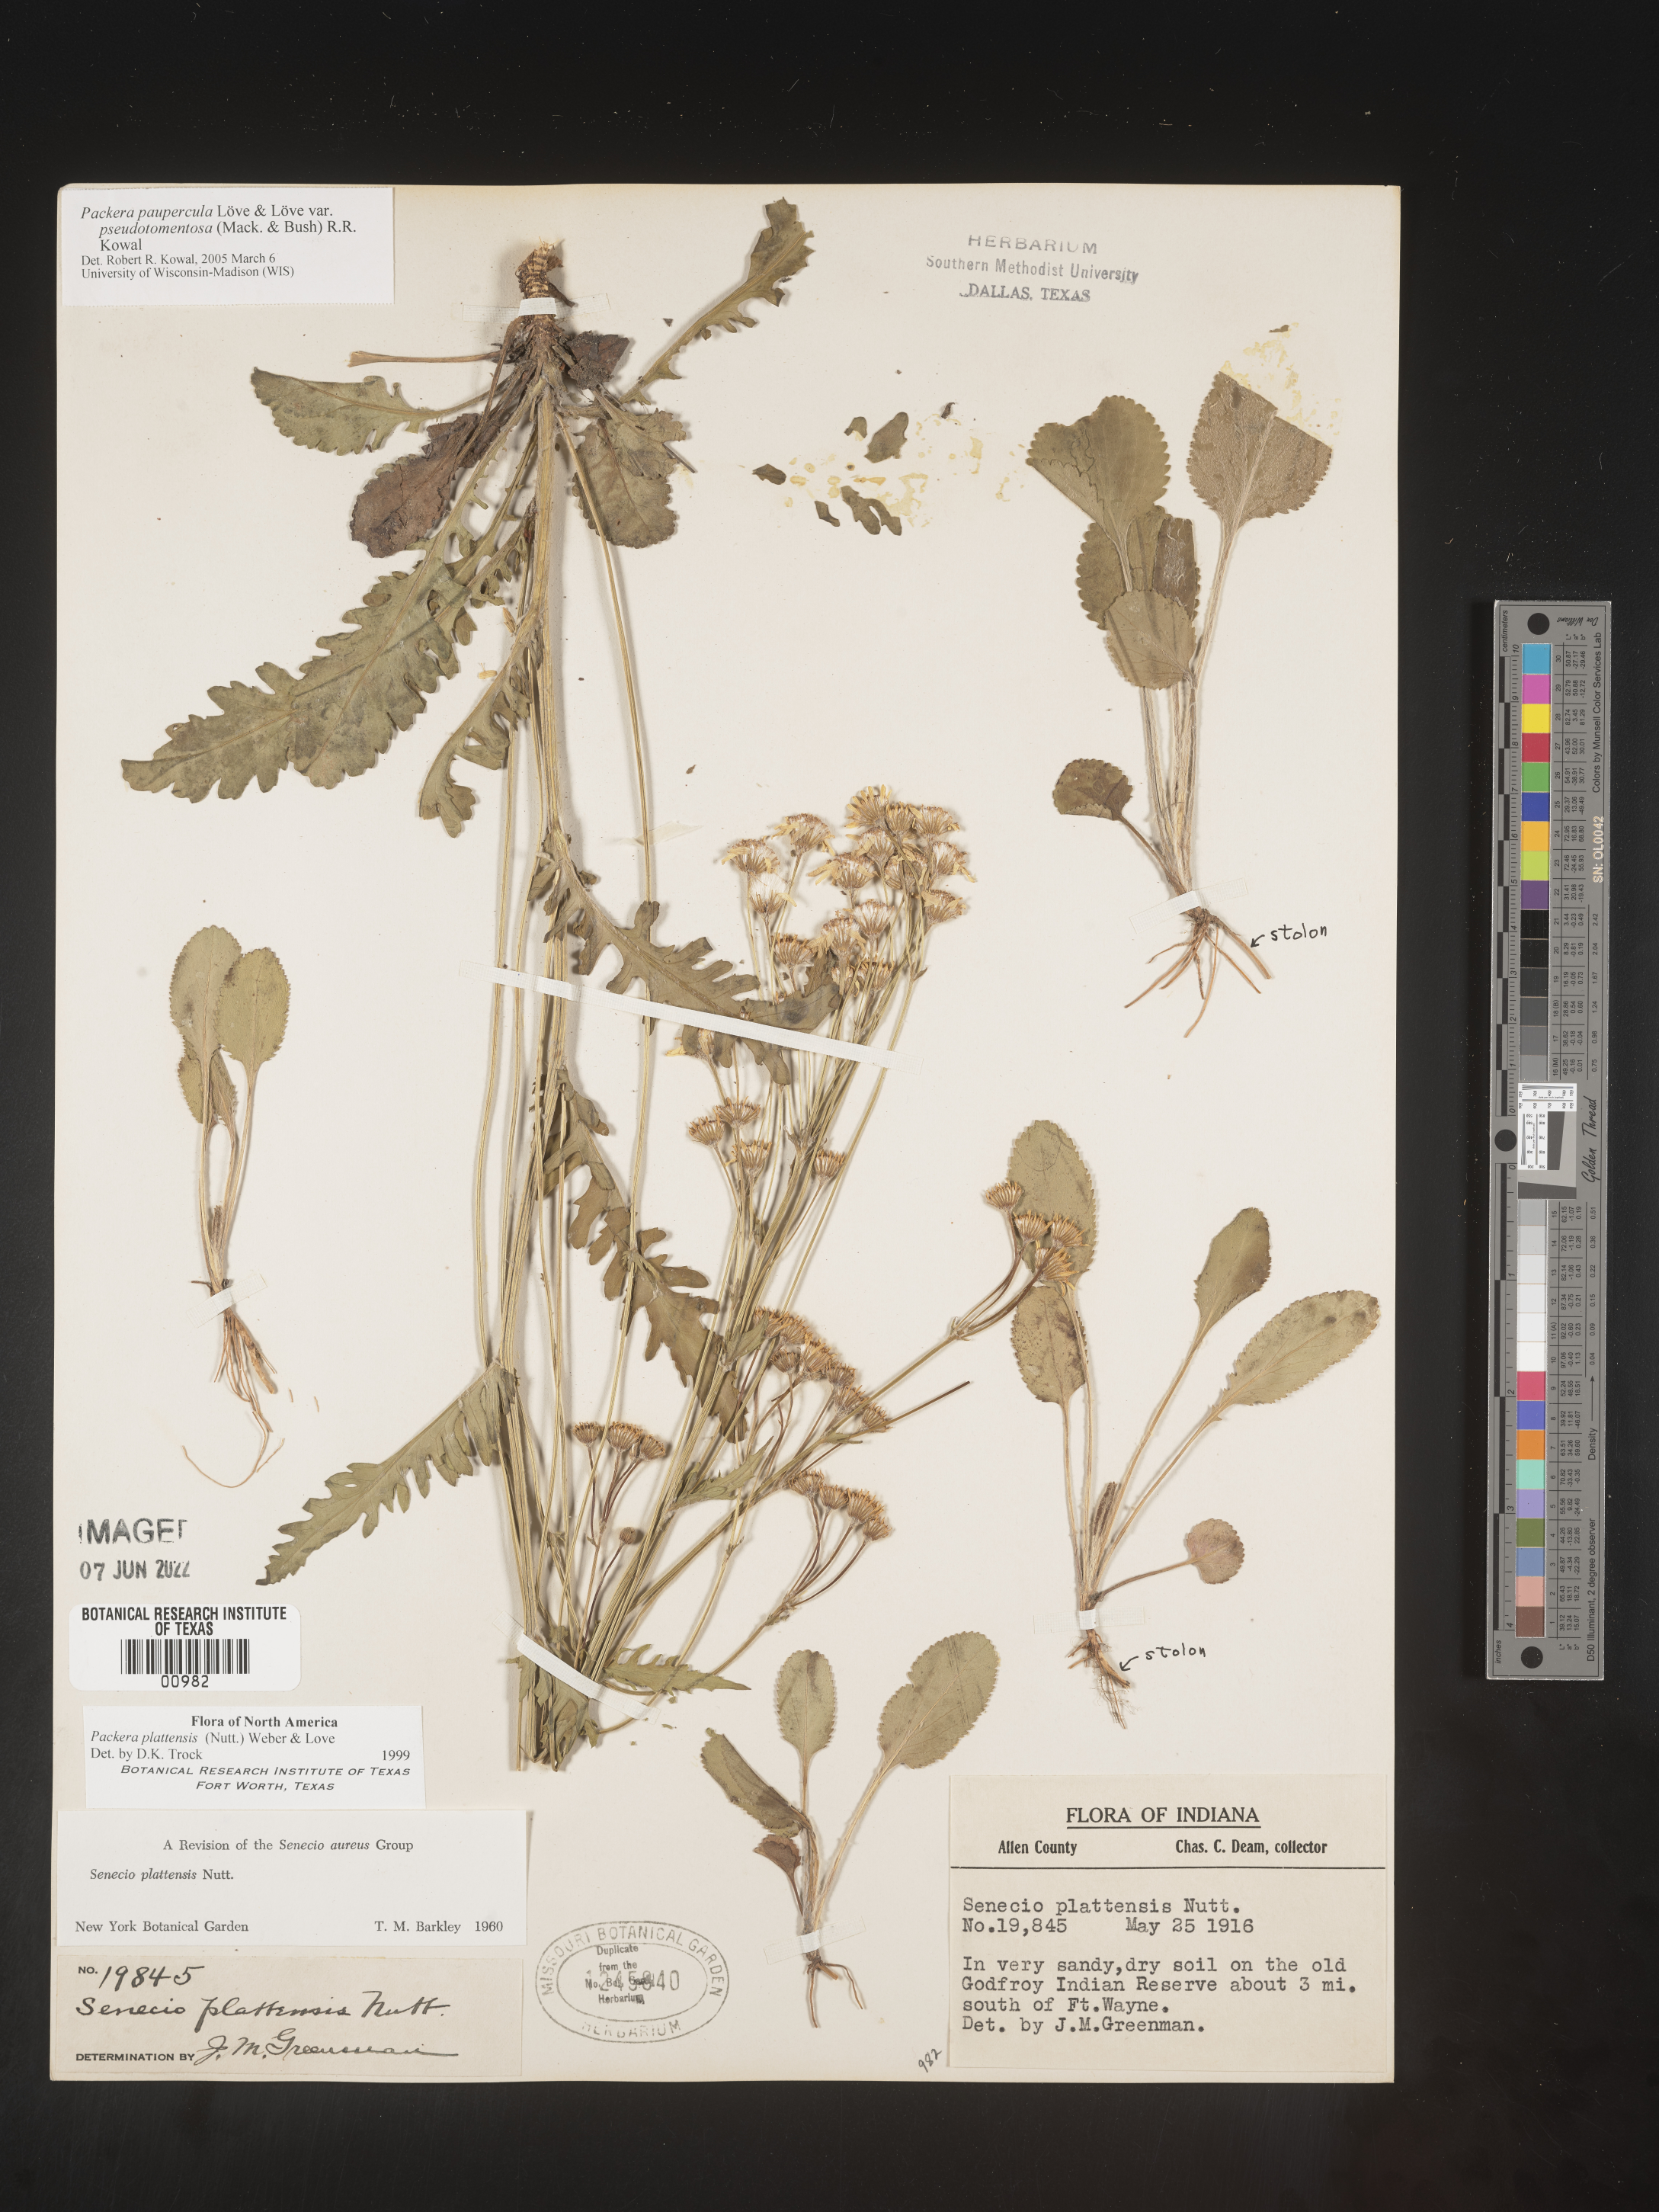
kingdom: Plantae
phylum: Tracheophyta
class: Magnoliopsida
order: Asterales
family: Asteraceae
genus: Packera
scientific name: Packera paupercula
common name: Balsam groundsel
